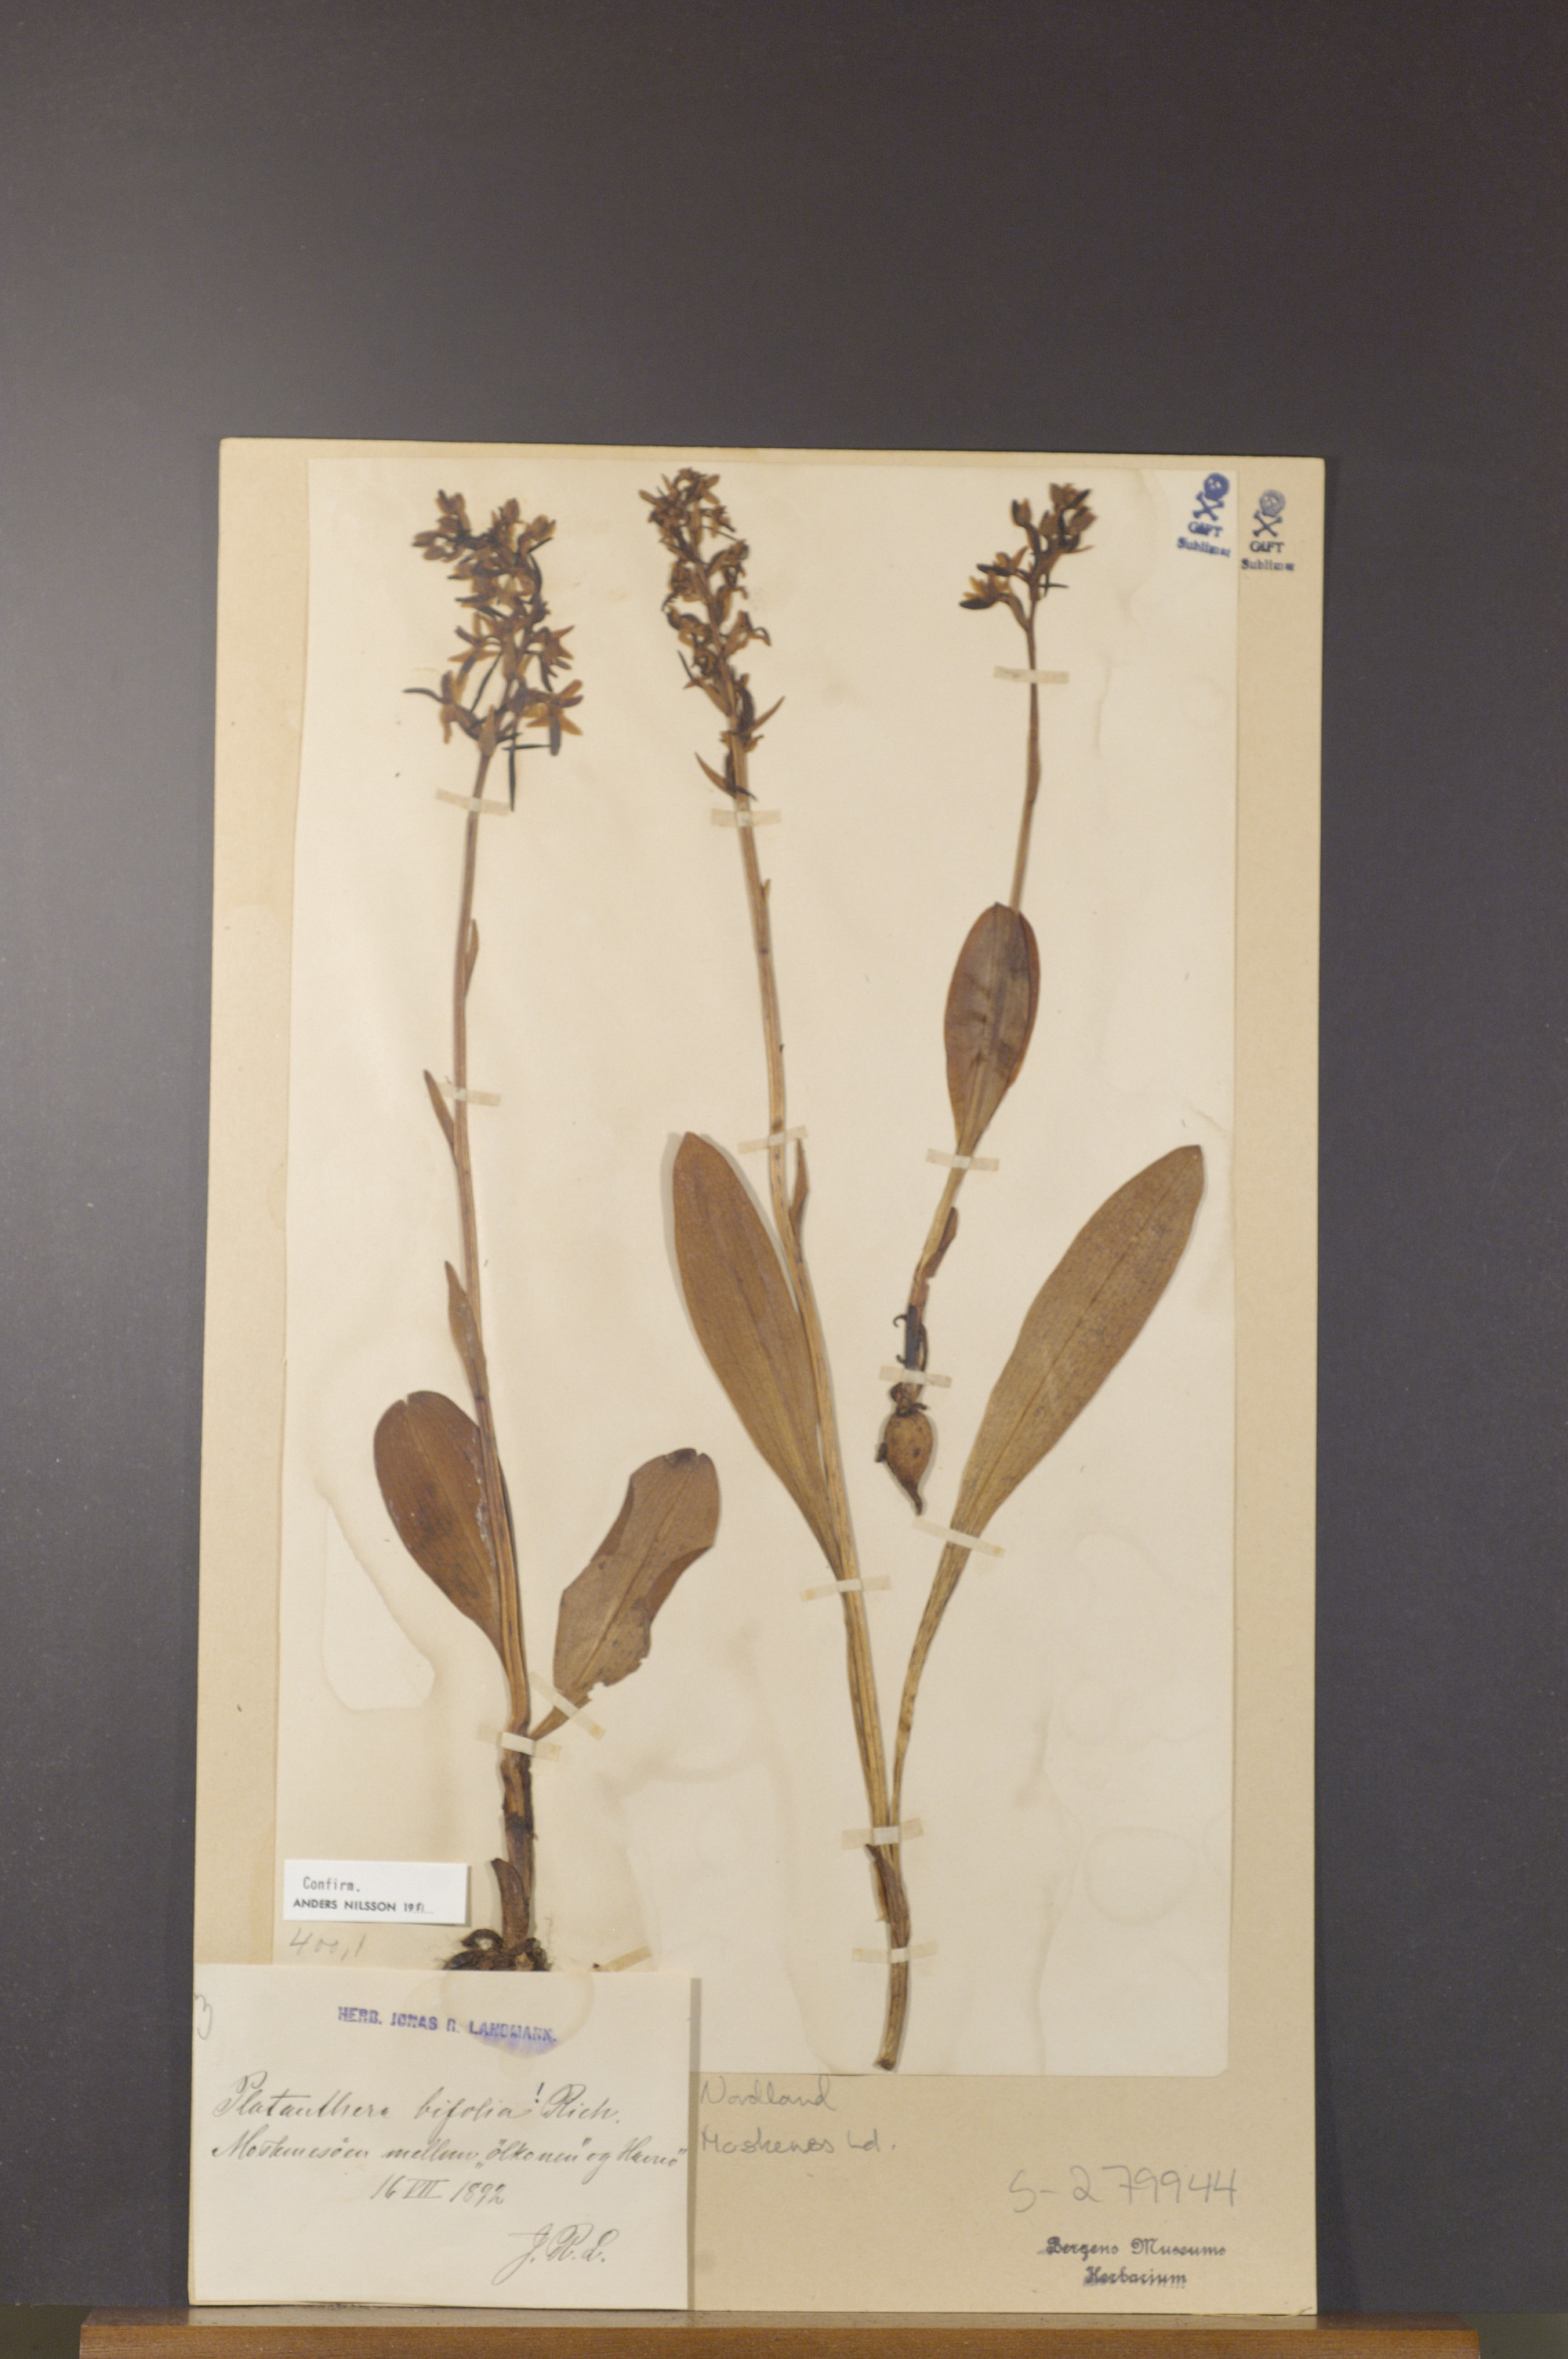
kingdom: Plantae
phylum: Tracheophyta
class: Liliopsida
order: Asparagales
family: Orchidaceae
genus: Platanthera
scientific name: Platanthera bifolia
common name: Lesser butterfly-orchid
